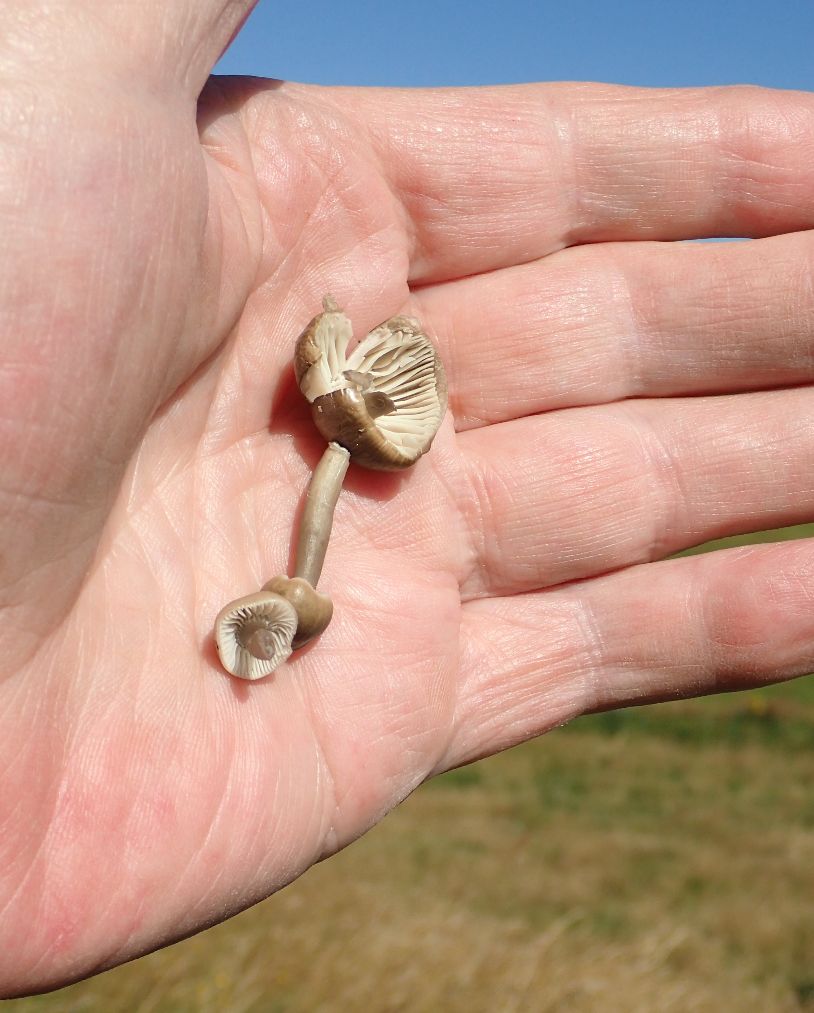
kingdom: Fungi
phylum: Basidiomycota
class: Agaricomycetes
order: Agaricales
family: Hygrophoraceae
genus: Gliophorus
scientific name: Gliophorus irrigatus
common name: slimet vokshat
